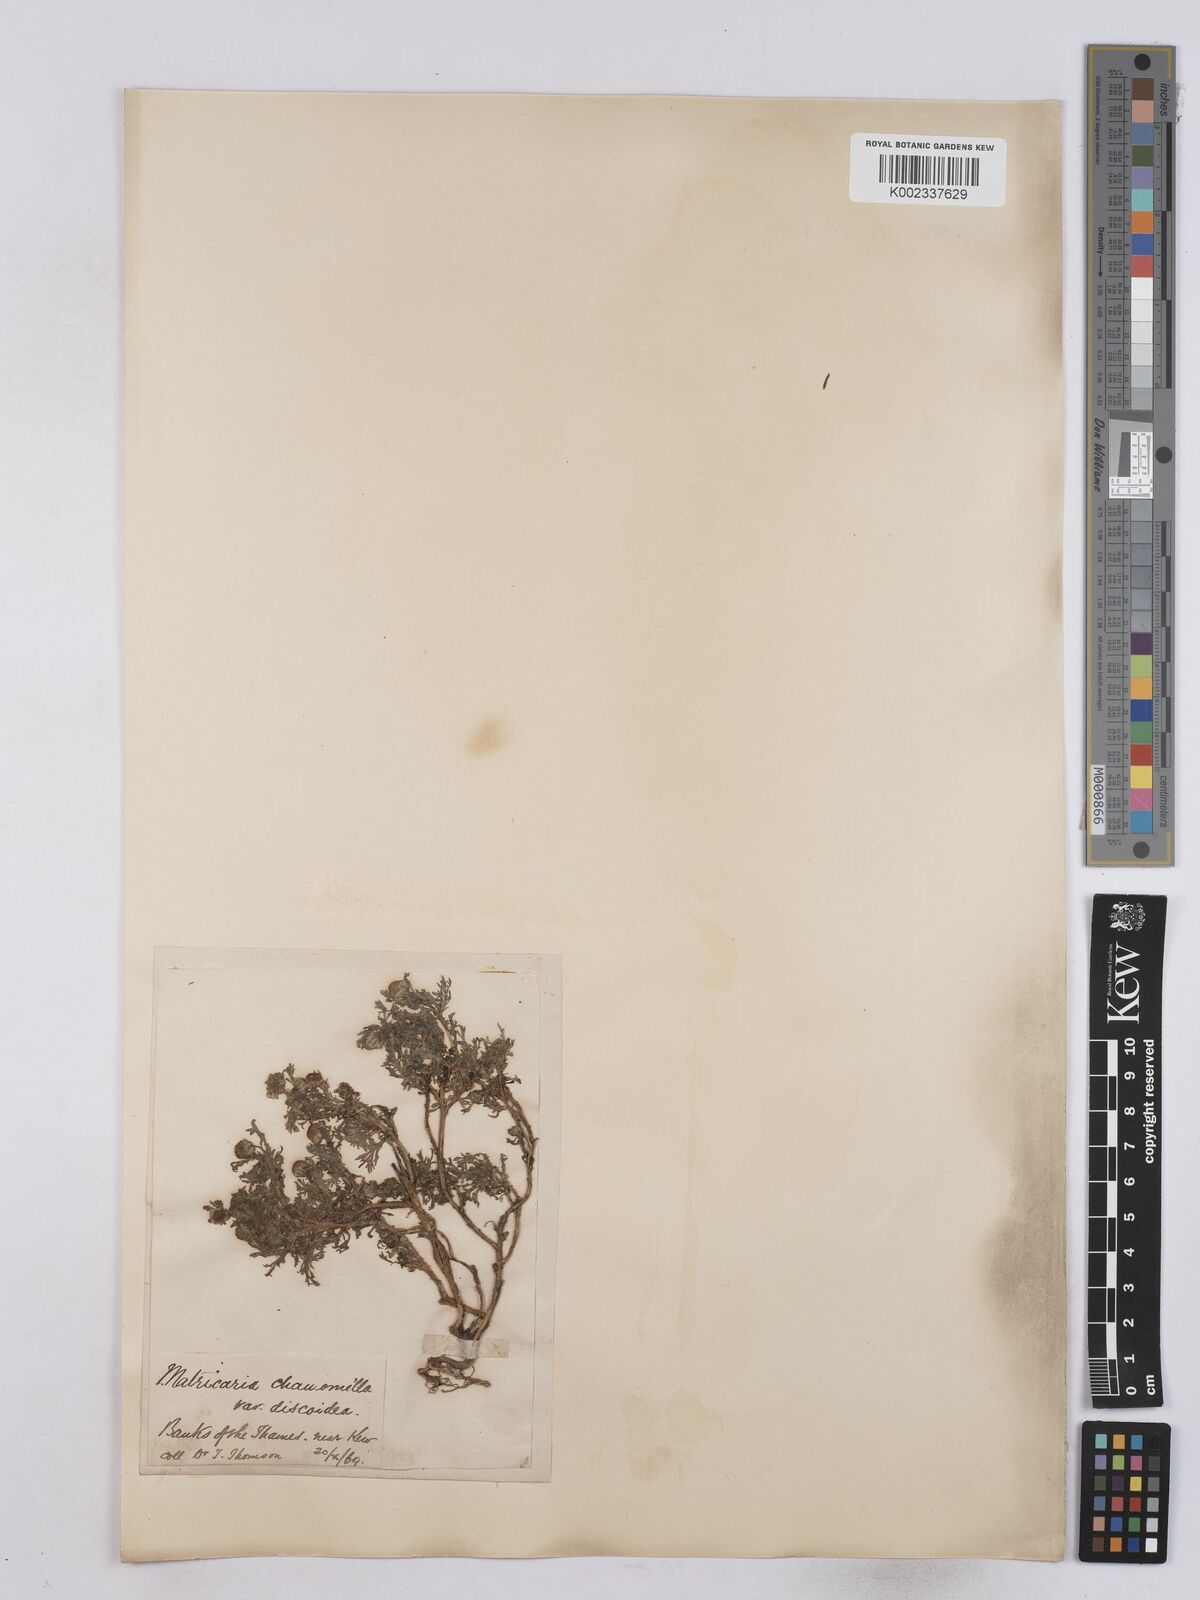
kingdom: Plantae
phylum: Tracheophyta
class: Magnoliopsida
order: Asterales
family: Asteraceae
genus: Matricaria
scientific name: Matricaria discoidea
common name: Disc mayweed
